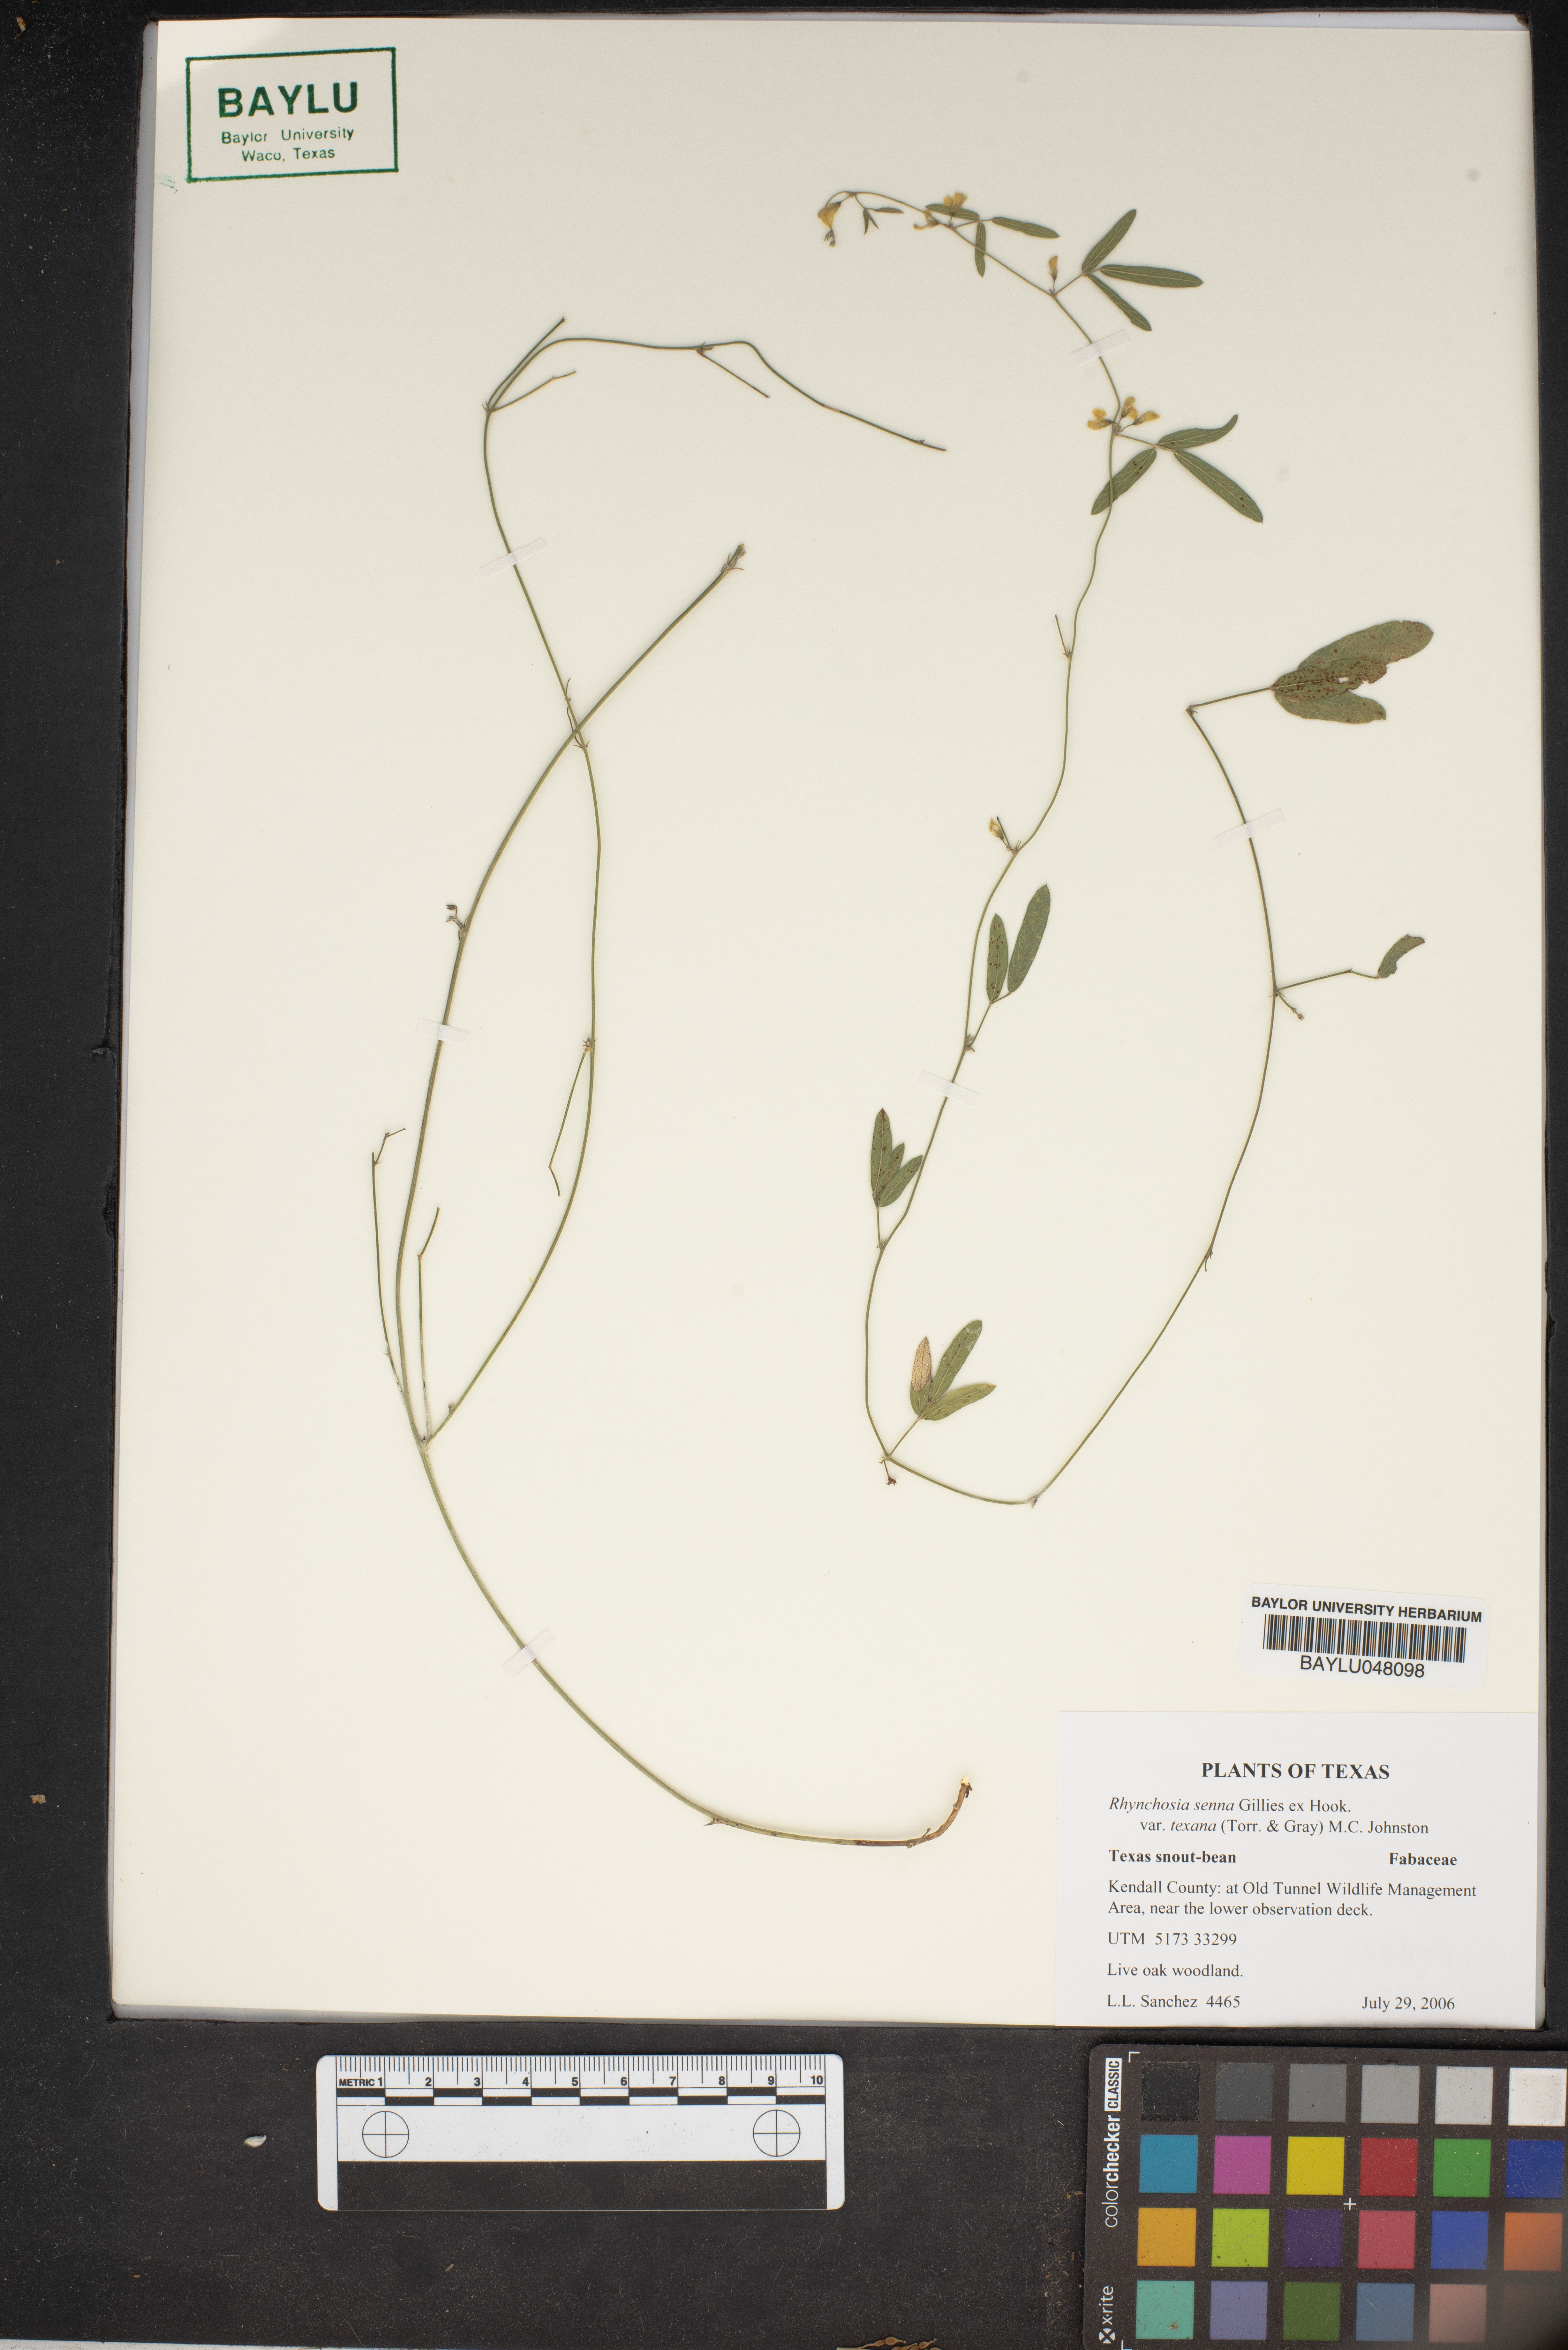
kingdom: Plantae
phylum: Tracheophyta
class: Magnoliopsida
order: Fabales
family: Fabaceae
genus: Rhynchosia
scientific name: Rhynchosia senna
